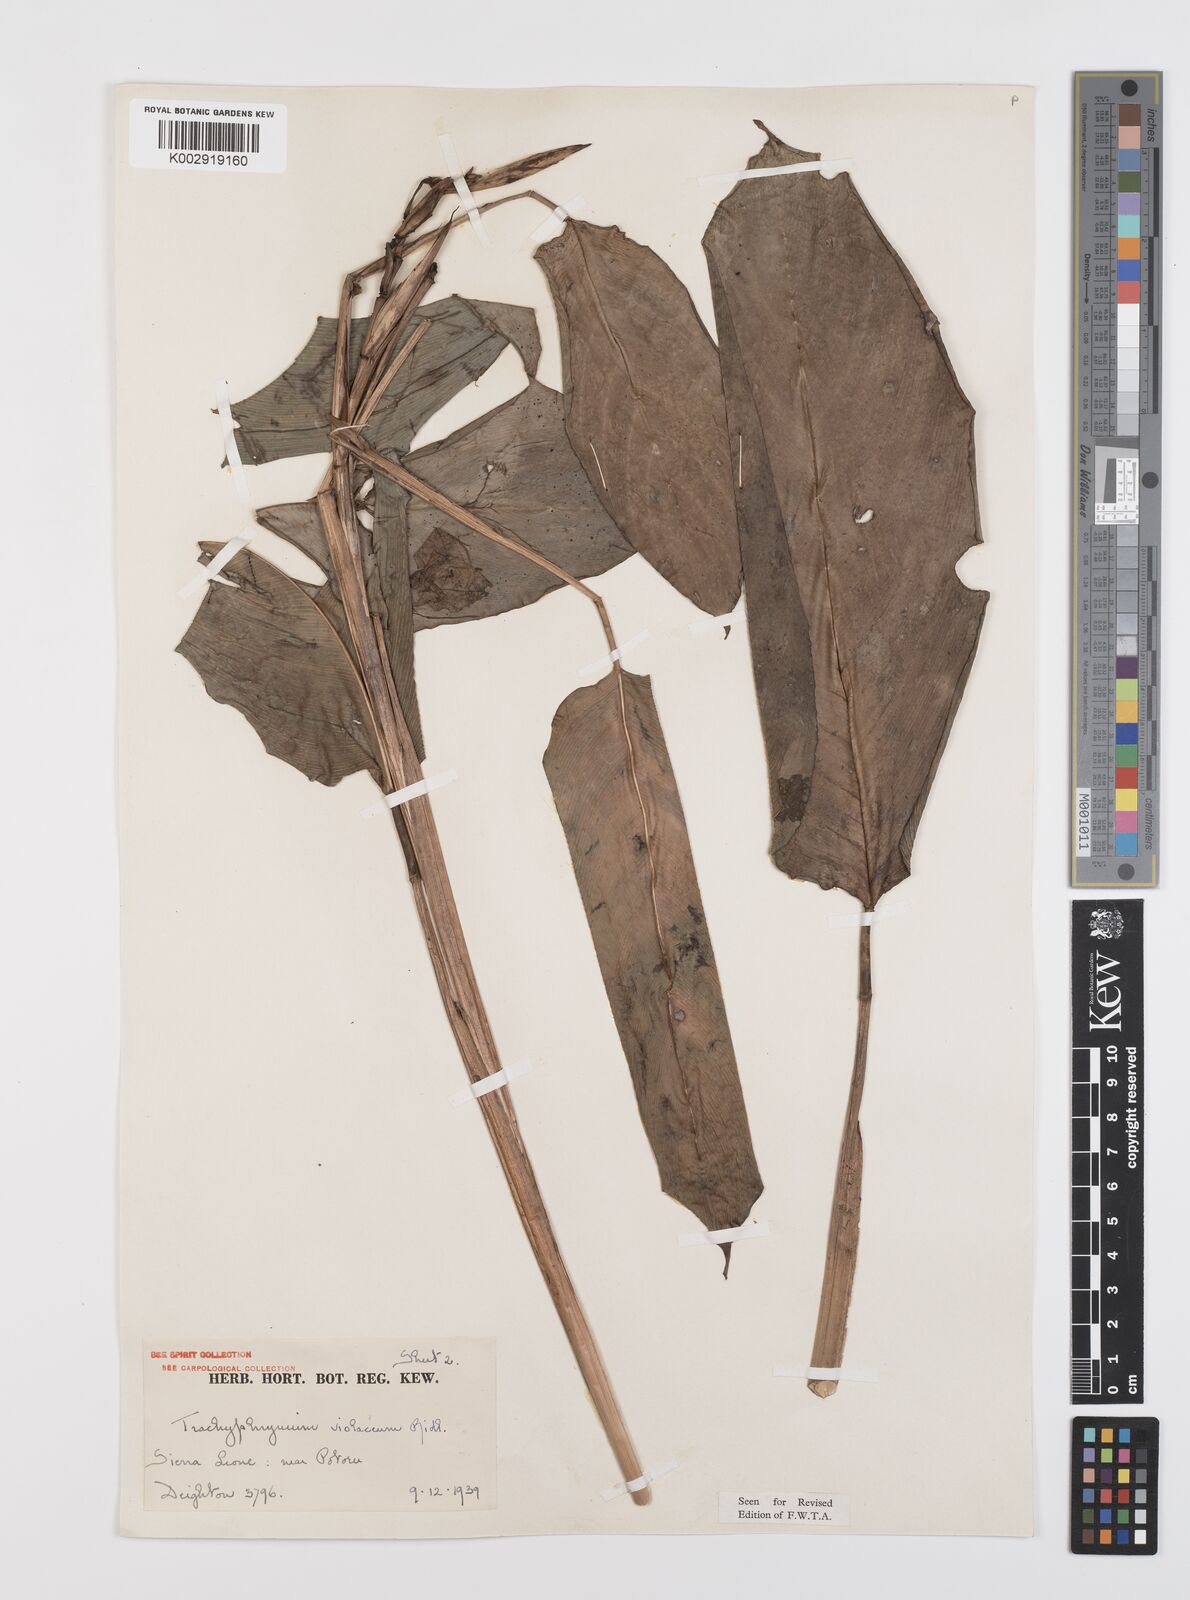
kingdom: Plantae
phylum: Tracheophyta
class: Liliopsida
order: Zingiberales
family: Marantaceae
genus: Hypselodelphys
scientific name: Hypselodelphys violacea
